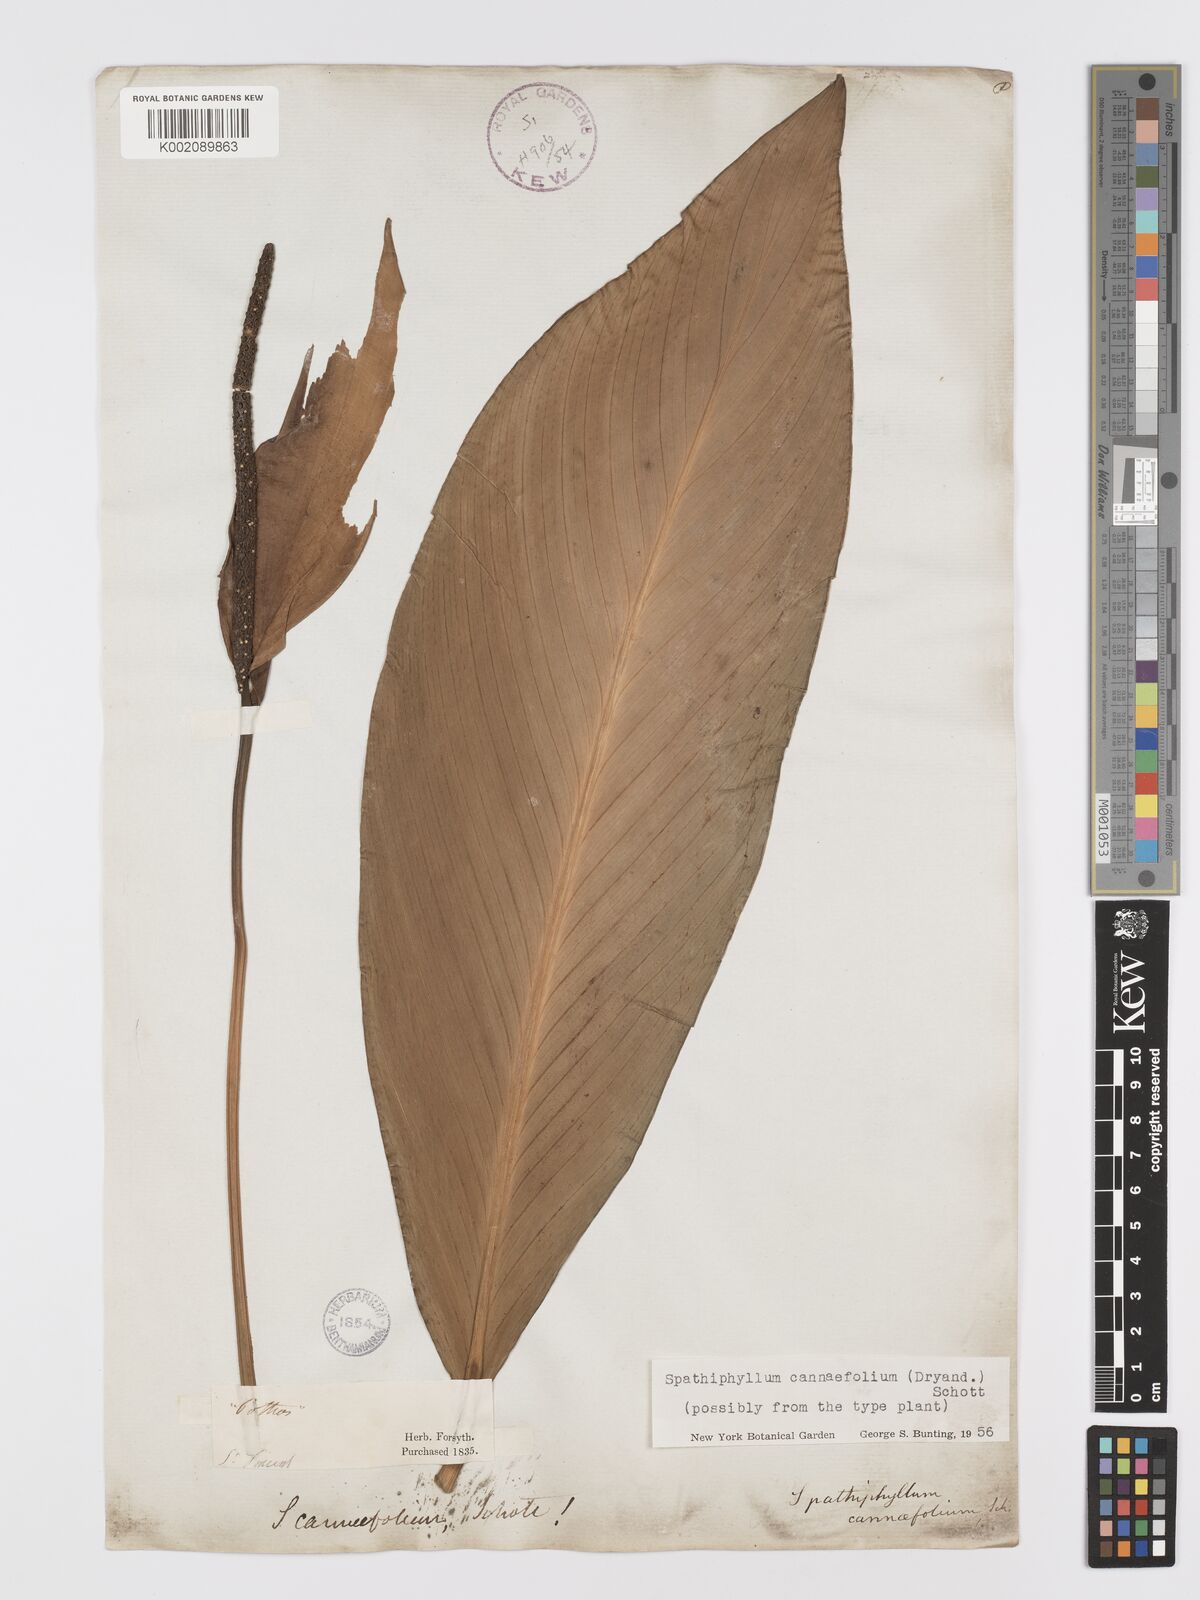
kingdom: Plantae
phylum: Tracheophyta
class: Liliopsida
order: Alismatales
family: Araceae
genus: Spathiphyllum
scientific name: Spathiphyllum cannifolium
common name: Spatheflower
